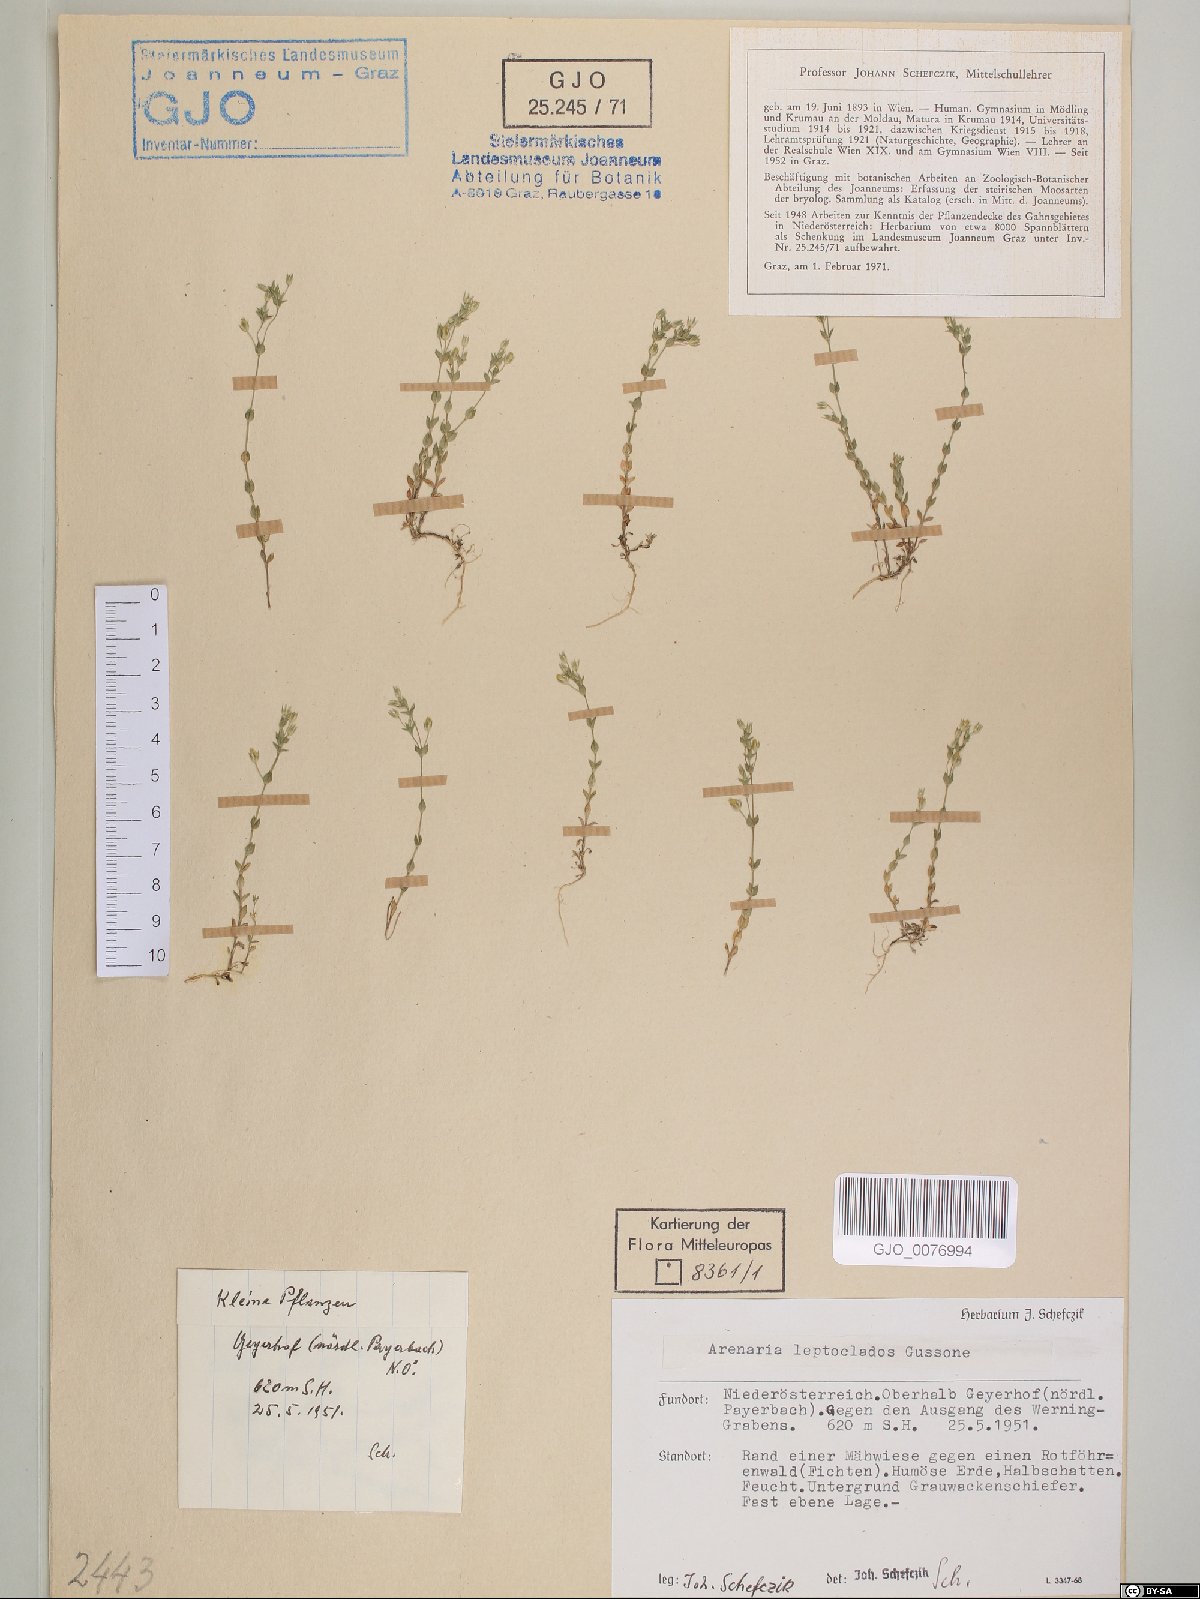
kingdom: Plantae
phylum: Tracheophyta
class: Magnoliopsida
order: Caryophyllales
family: Caryophyllaceae
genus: Arenaria
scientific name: Arenaria leptoclados
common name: Thyme-leaved sandwort
